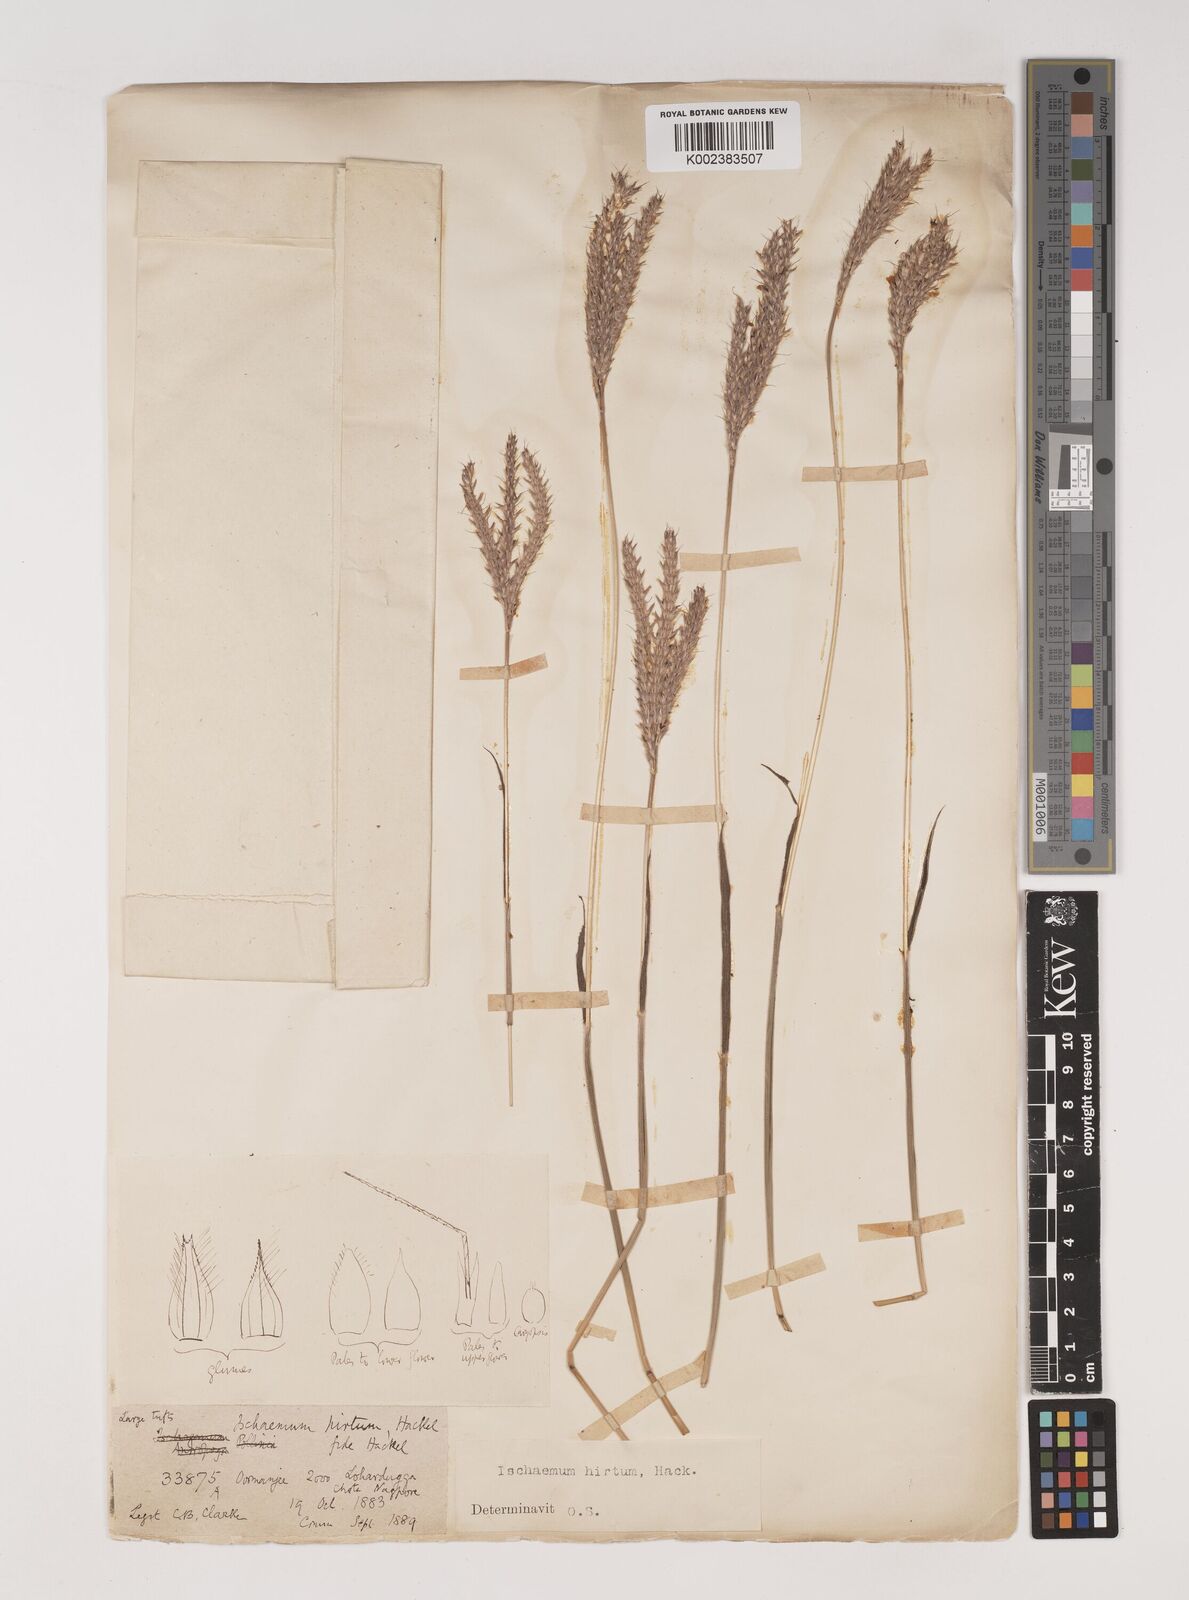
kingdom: Plantae
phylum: Tracheophyta
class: Liliopsida
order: Poales
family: Poaceae
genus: Ischaemum
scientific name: Ischaemum
